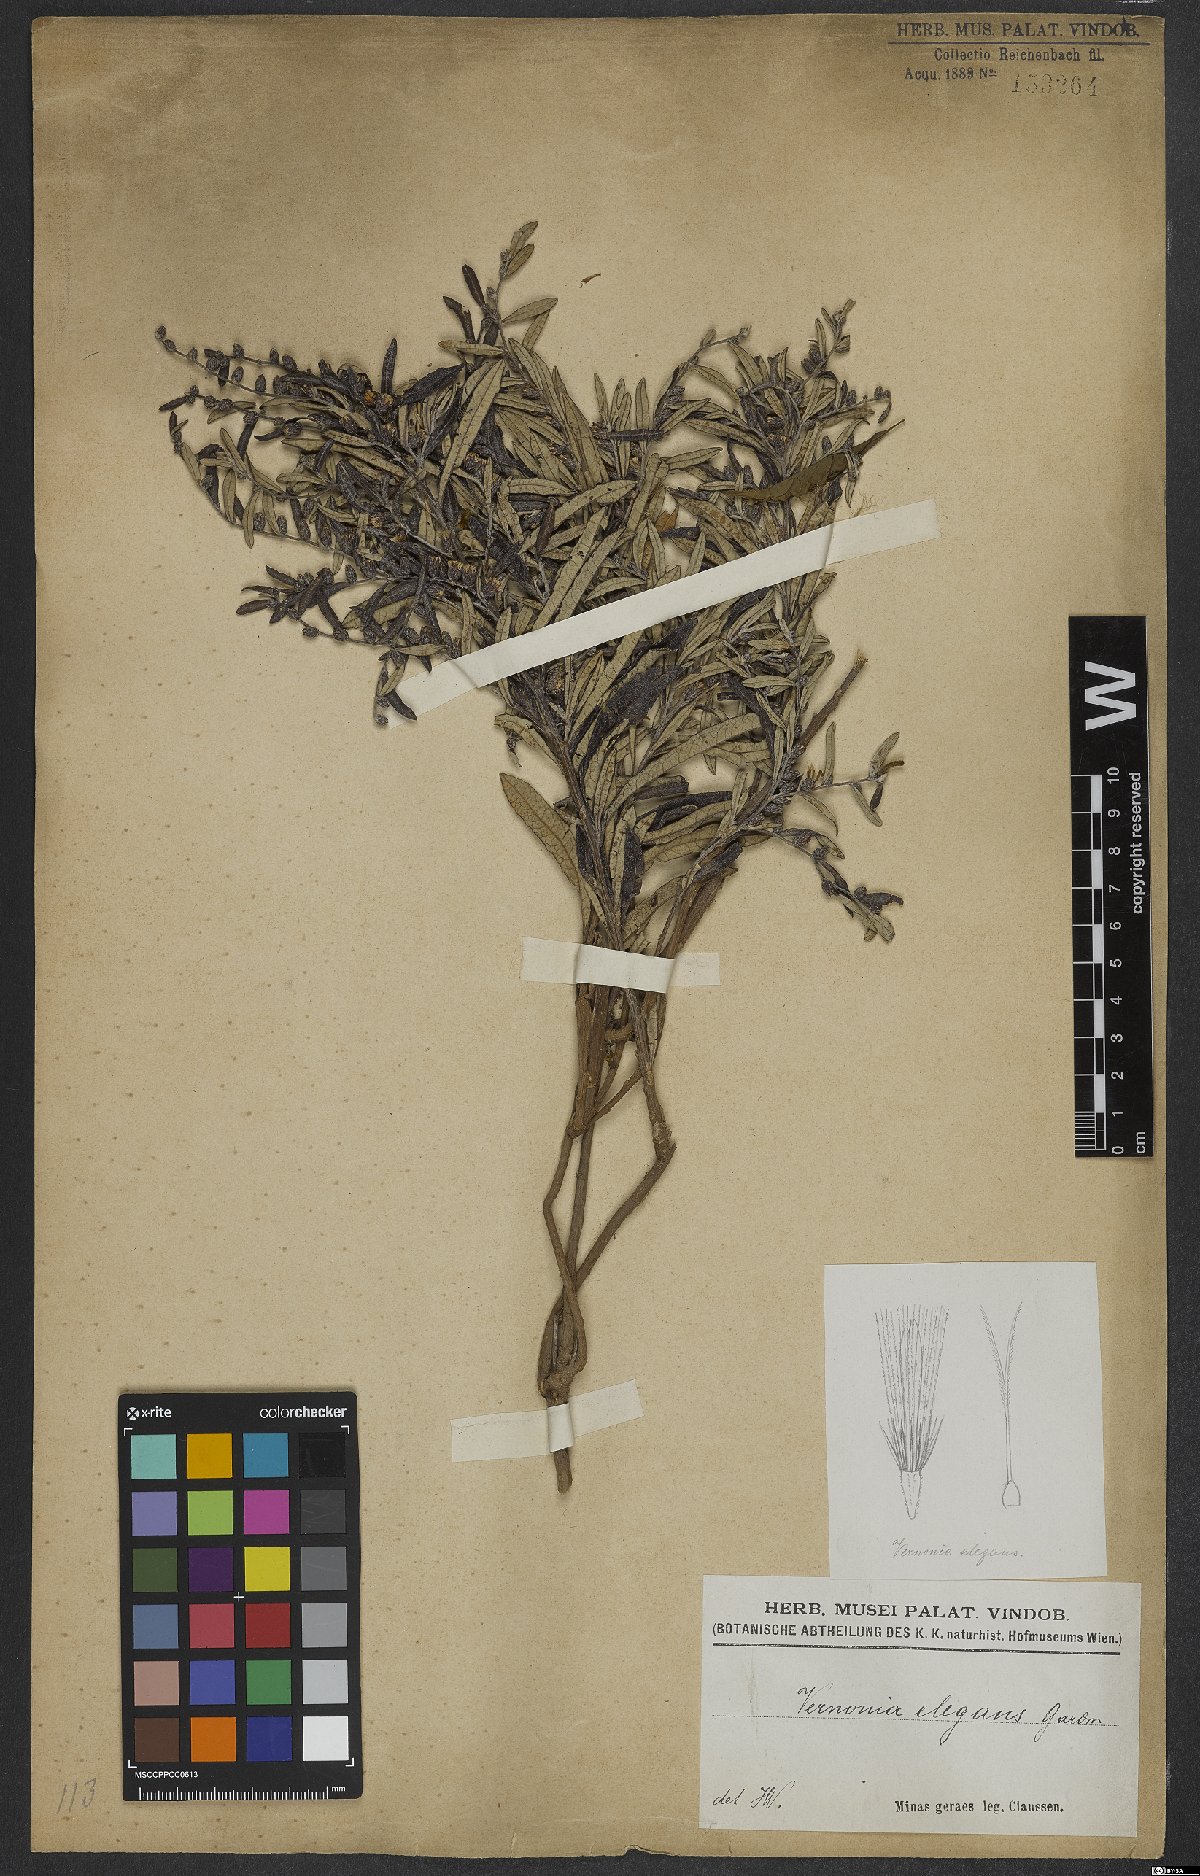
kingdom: Plantae
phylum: Tracheophyta
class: Magnoliopsida
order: Asterales
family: Asteraceae
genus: Lessingianthus
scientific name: Lessingianthus elegans
